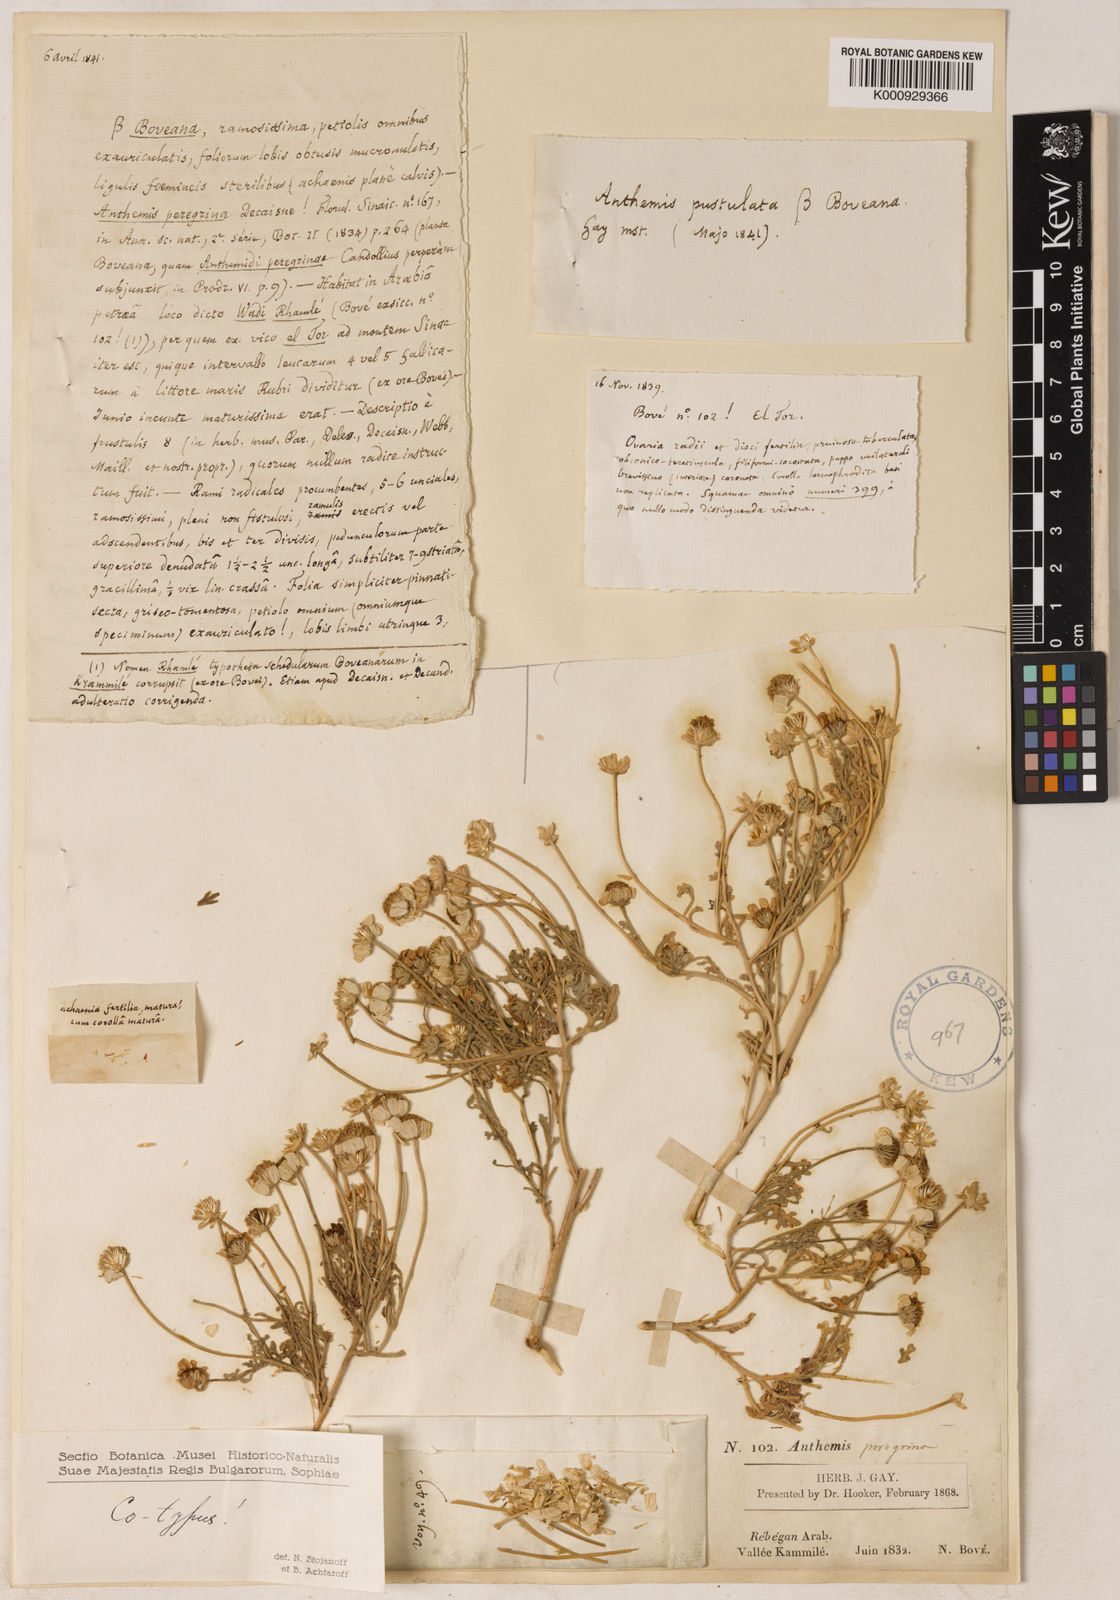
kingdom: Plantae
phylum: Tracheophyta
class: Magnoliopsida
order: Asterales
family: Asteraceae
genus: Anthemis
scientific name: Anthemis melampodina
